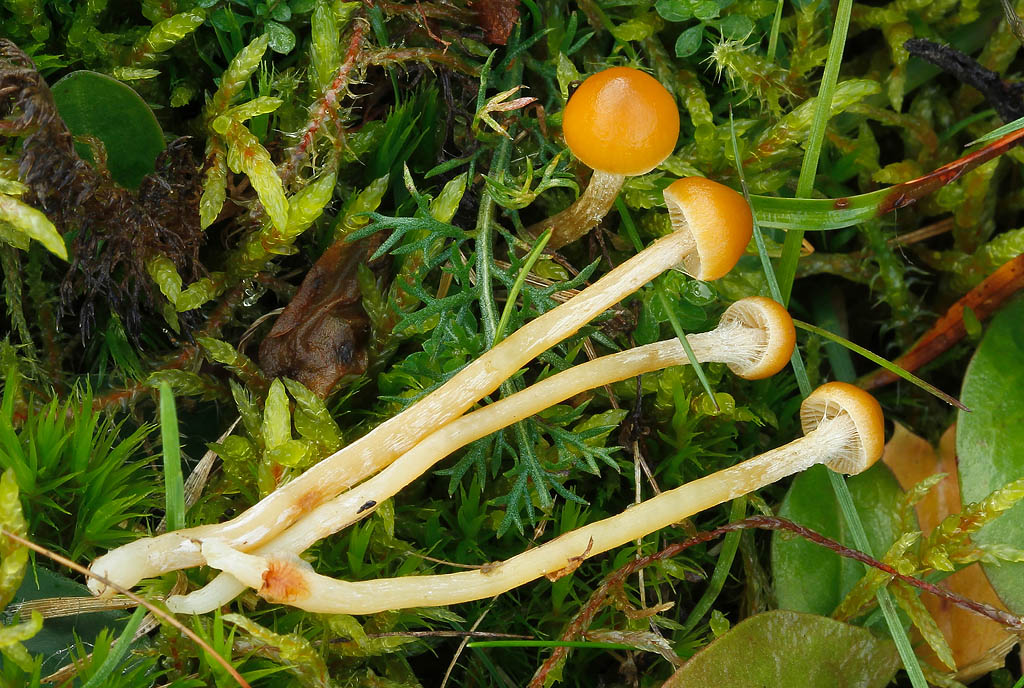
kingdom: Fungi
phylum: Basidiomycota
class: Agaricomycetes
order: Agaricales
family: Hymenogastraceae
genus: Galerina
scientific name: Galerina pumila
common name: honninggul hjelmhat
